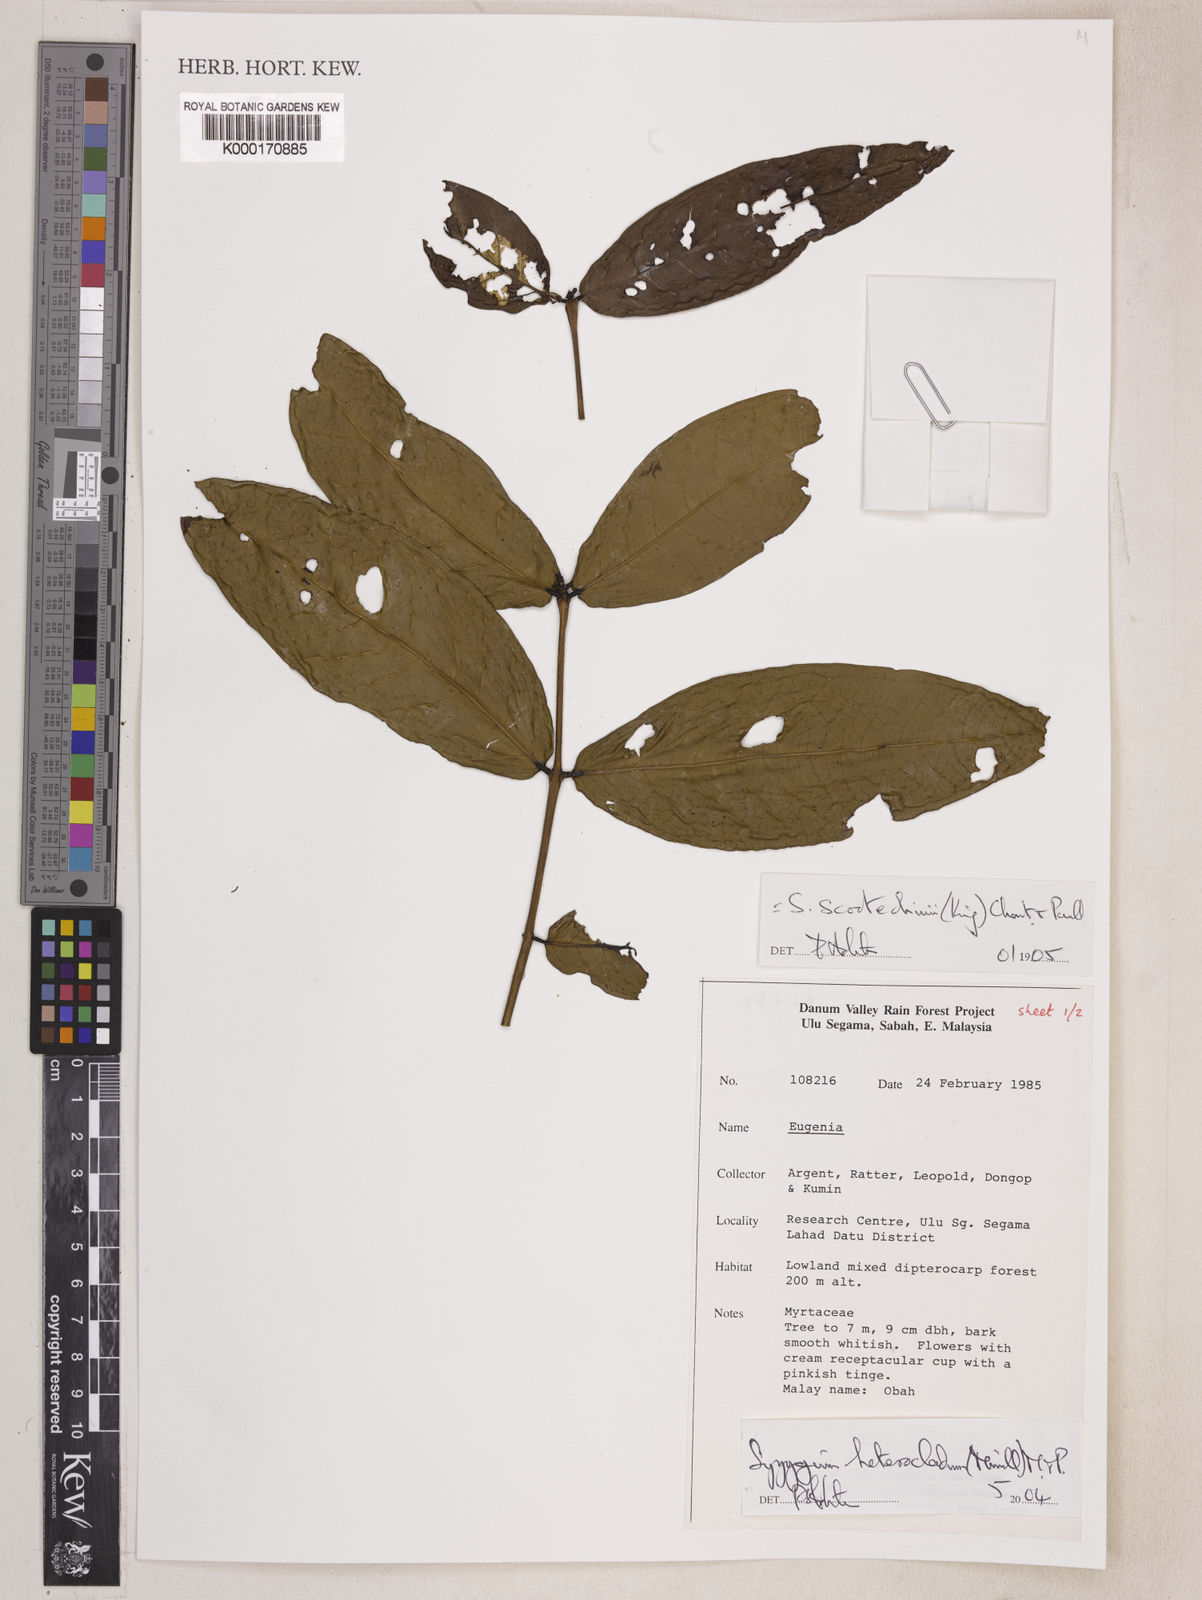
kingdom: Plantae
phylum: Tracheophyta
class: Magnoliopsida
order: Myrtales
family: Myrtaceae
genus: Syzygium
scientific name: Syzygium scortechinii
